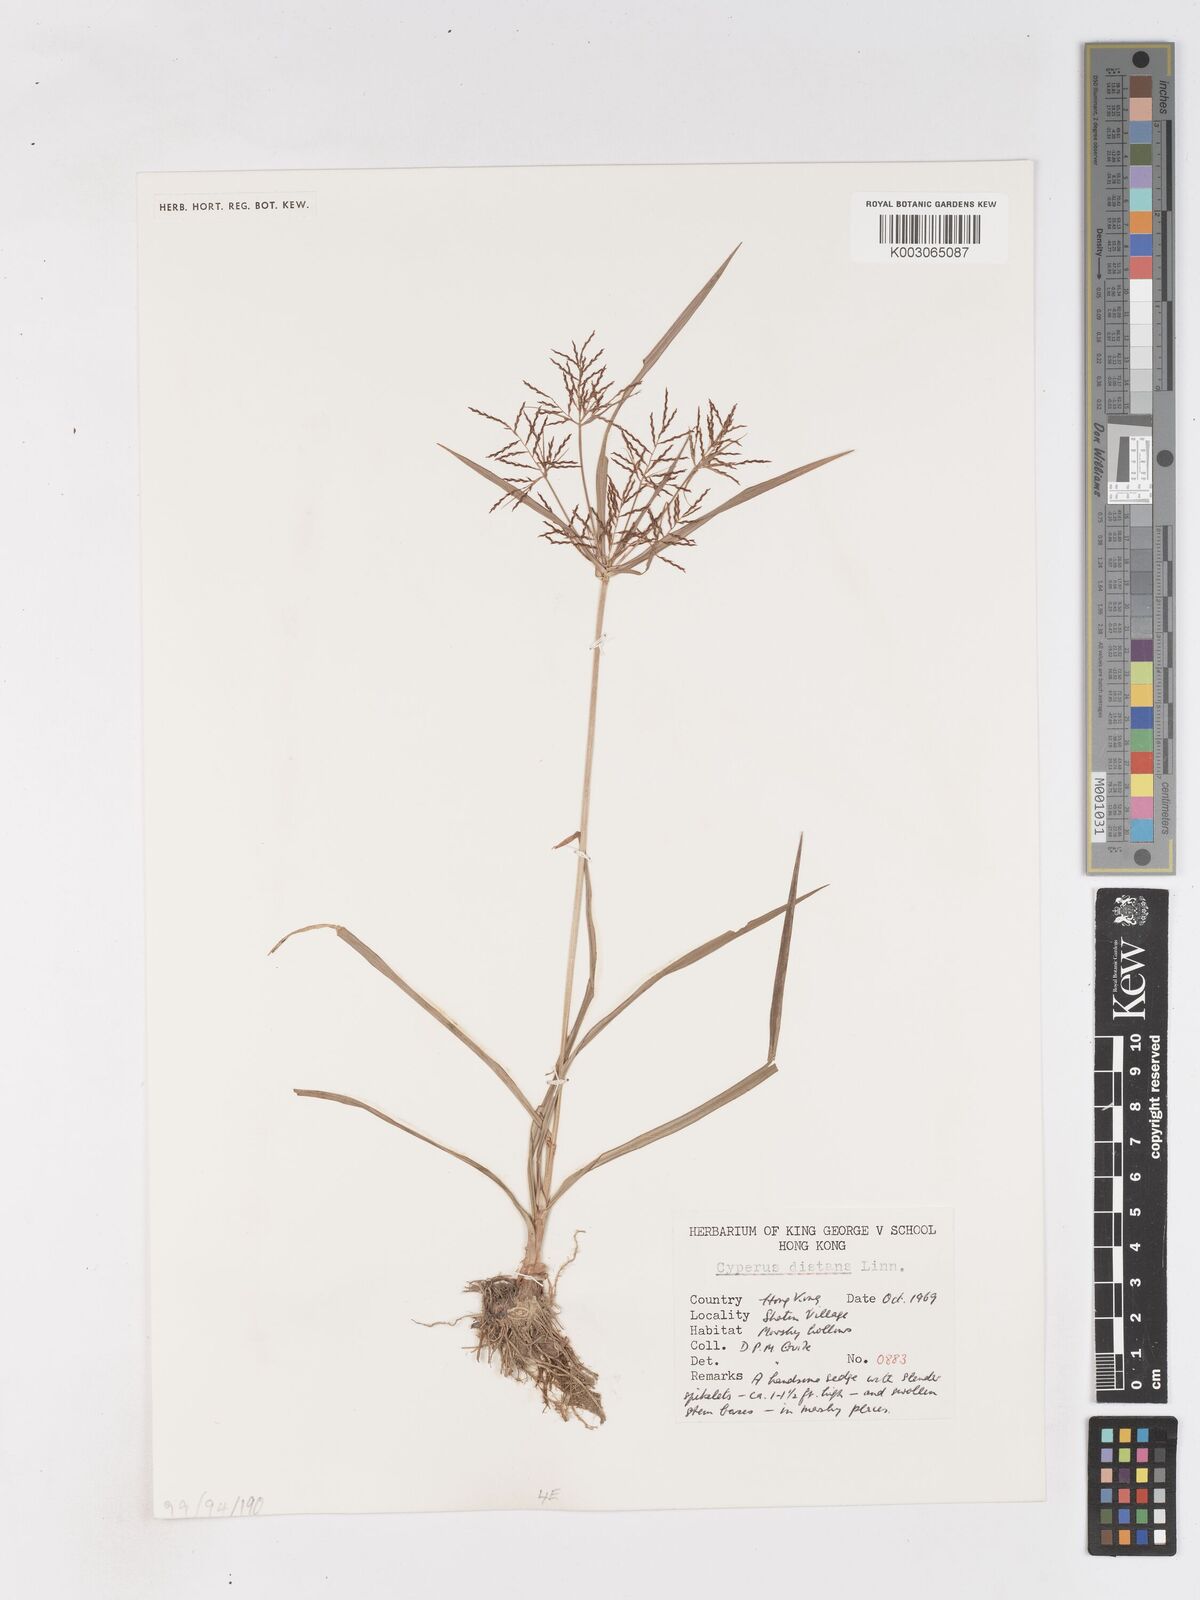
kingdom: Plantae
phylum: Tracheophyta
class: Liliopsida
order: Poales
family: Cyperaceae
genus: Cyperus
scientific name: Cyperus difformis
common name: Variable flatsedge
